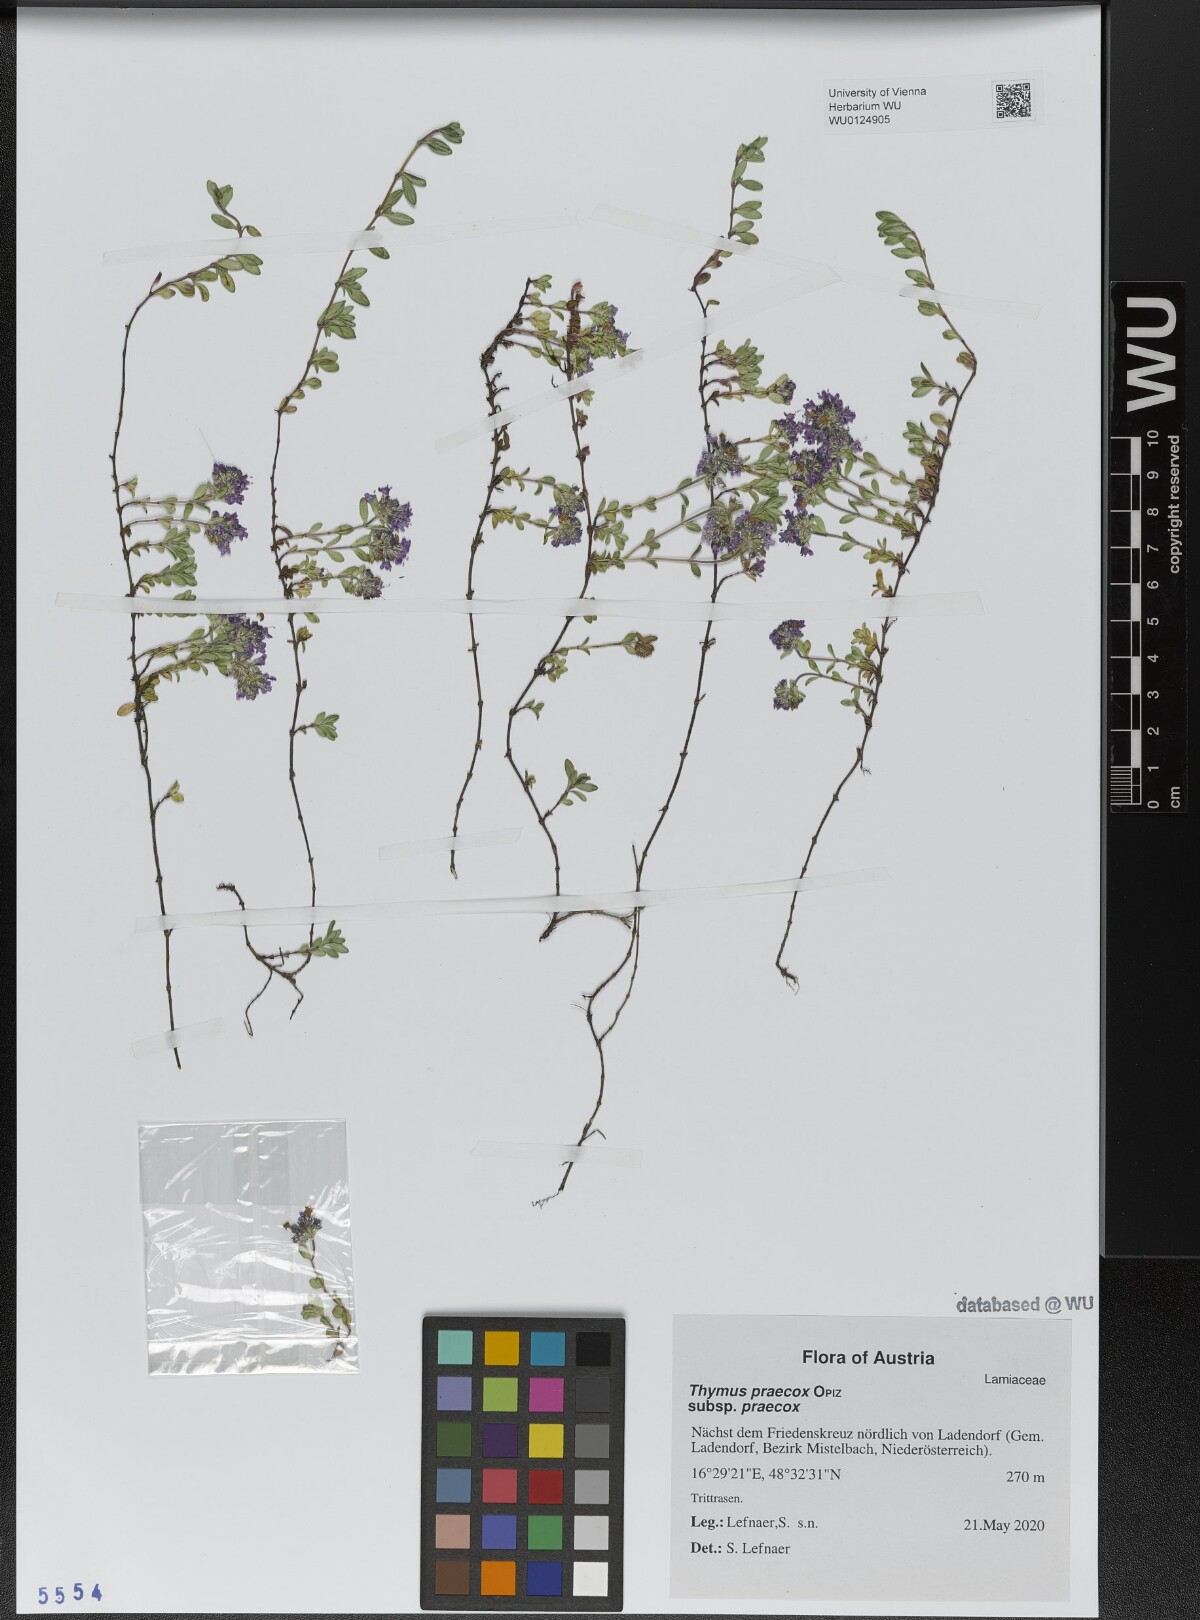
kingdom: Plantae
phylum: Tracheophyta
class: Magnoliopsida
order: Lamiales
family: Lamiaceae
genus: Thymus
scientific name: Thymus praecox
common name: Wild thyme
